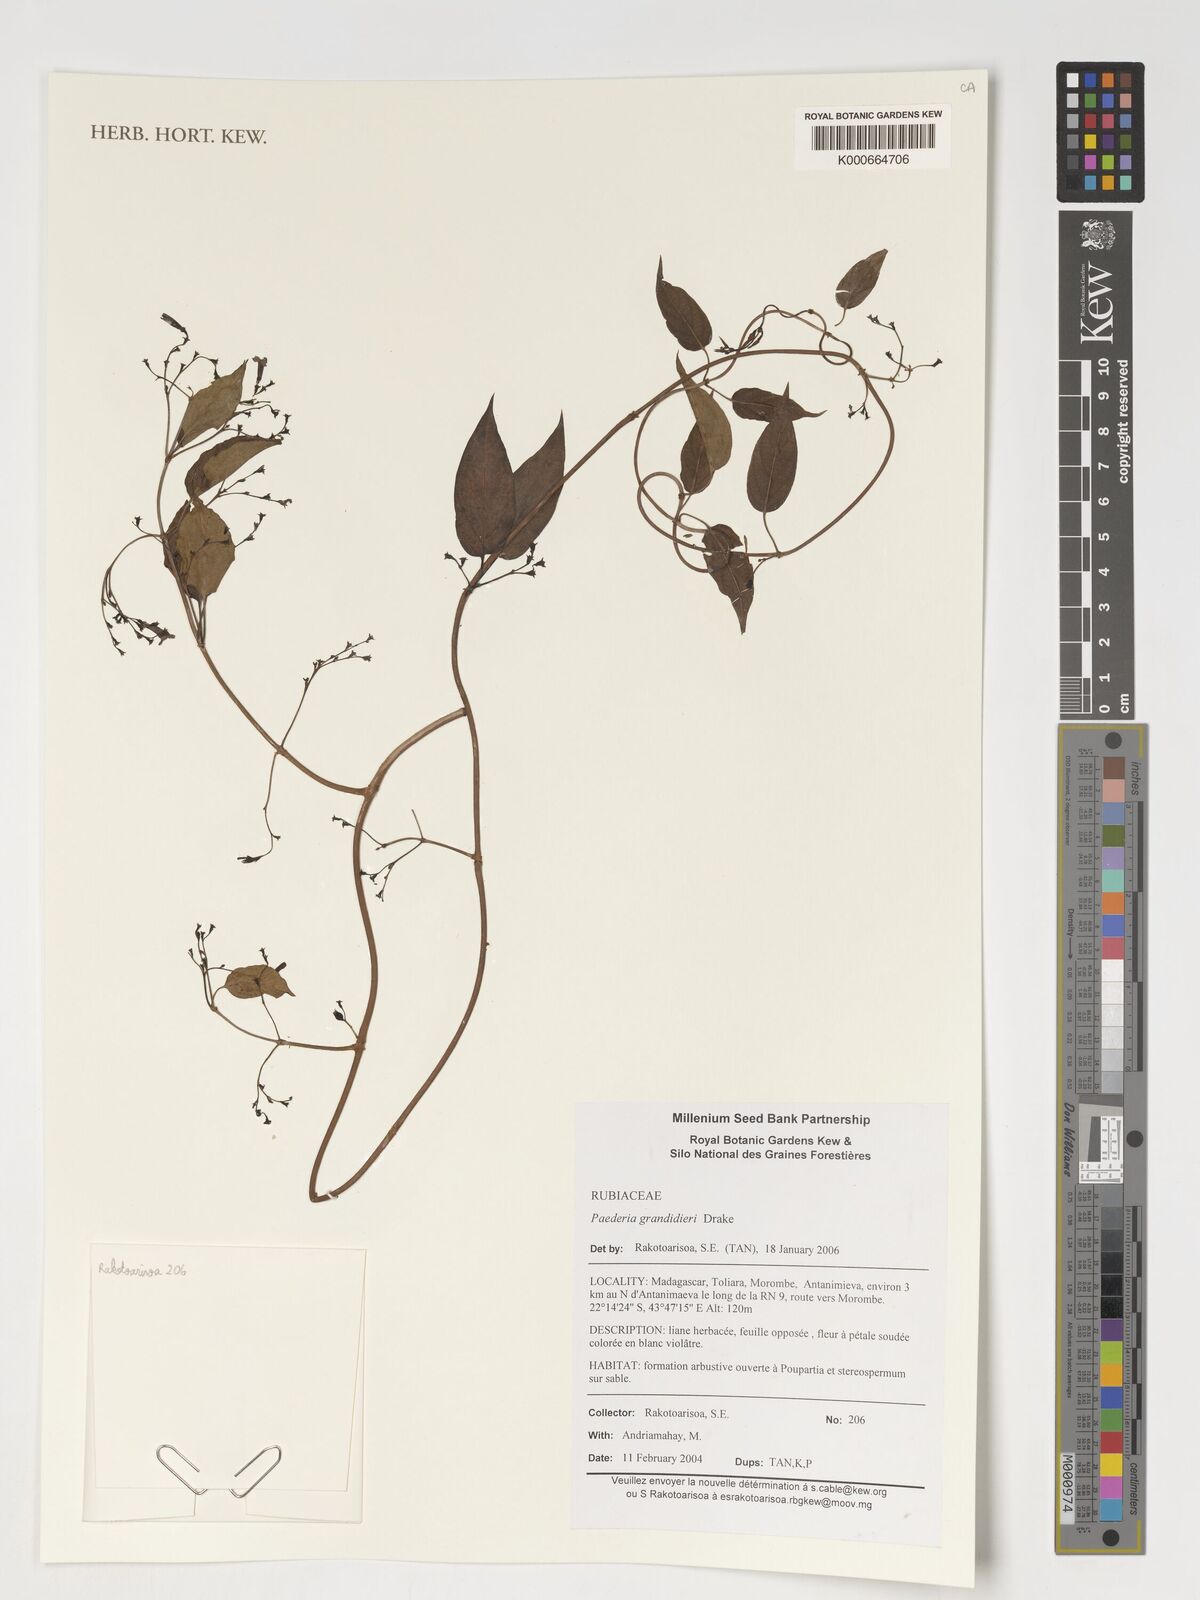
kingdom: Plantae
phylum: Tracheophyta
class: Magnoliopsida
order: Gentianales
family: Rubiaceae
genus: Paederia
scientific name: Paederia grandidieri
